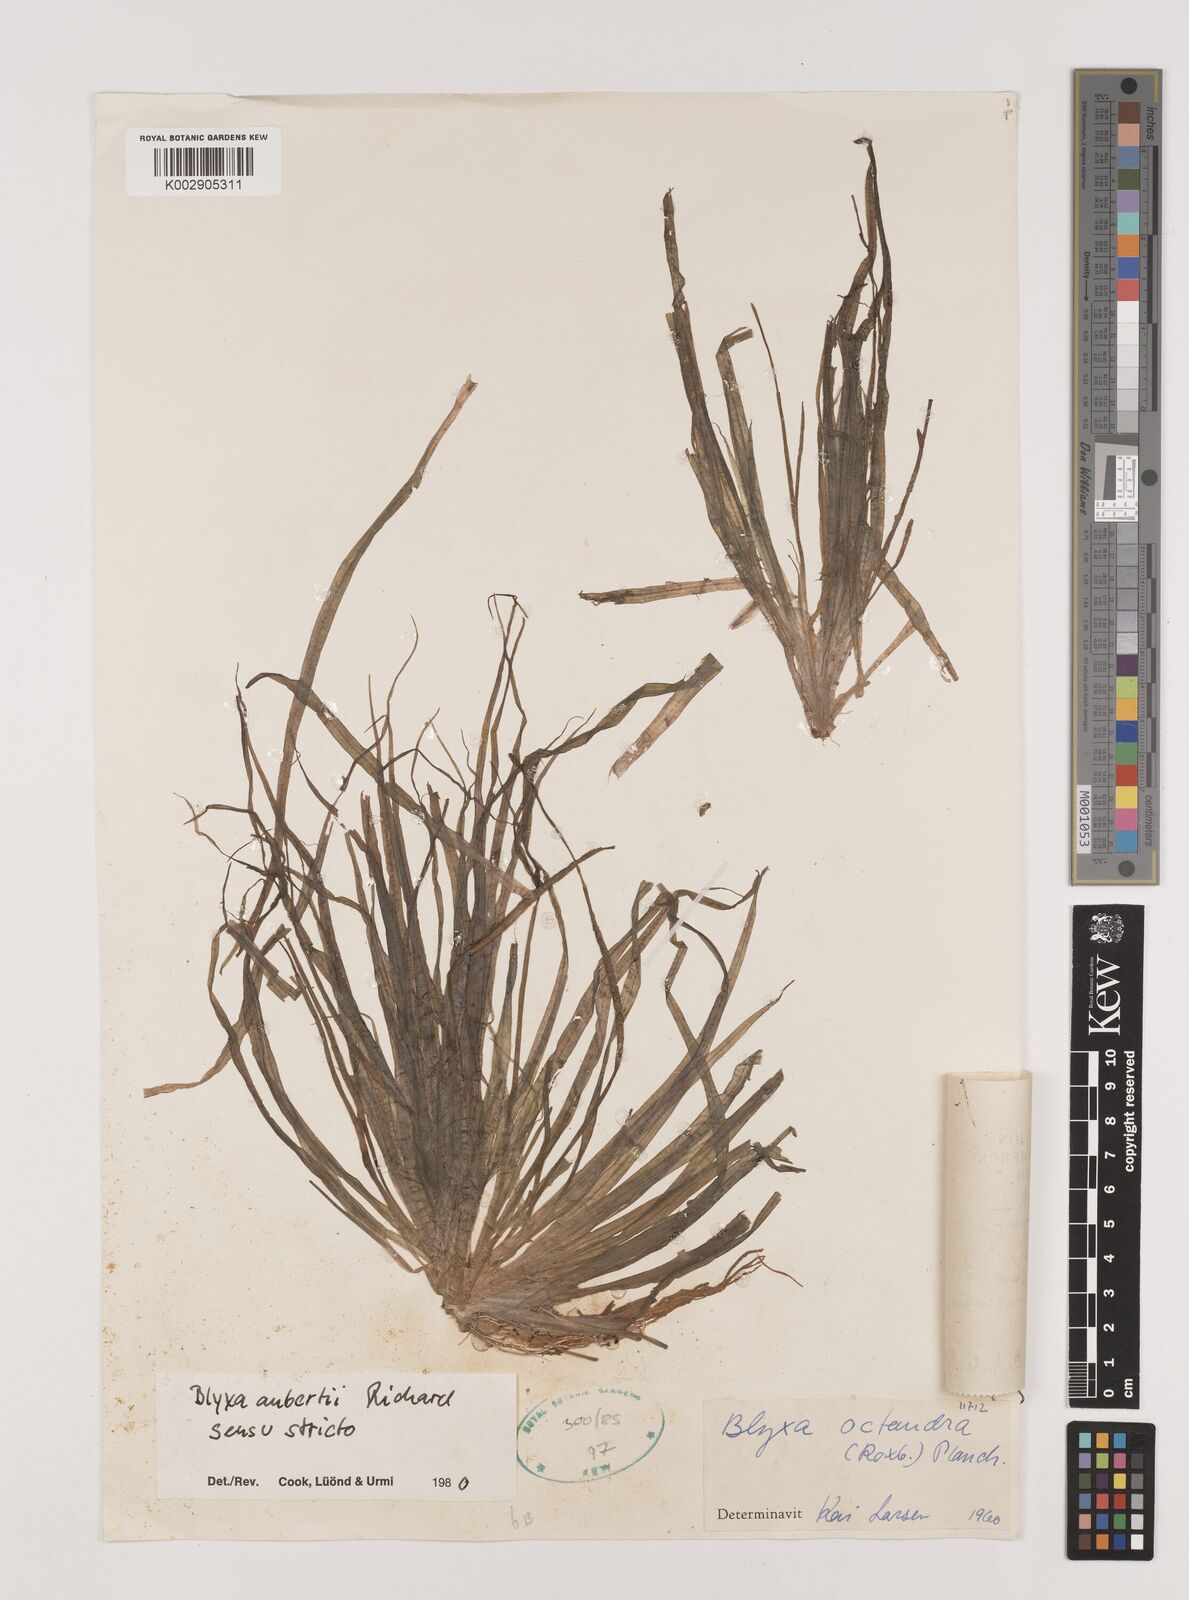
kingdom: Plantae
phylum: Tracheophyta
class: Liliopsida
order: Alismatales
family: Hydrocharitaceae
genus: Blyxa
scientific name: Blyxa aubertii
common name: Roundfruit blyxa
